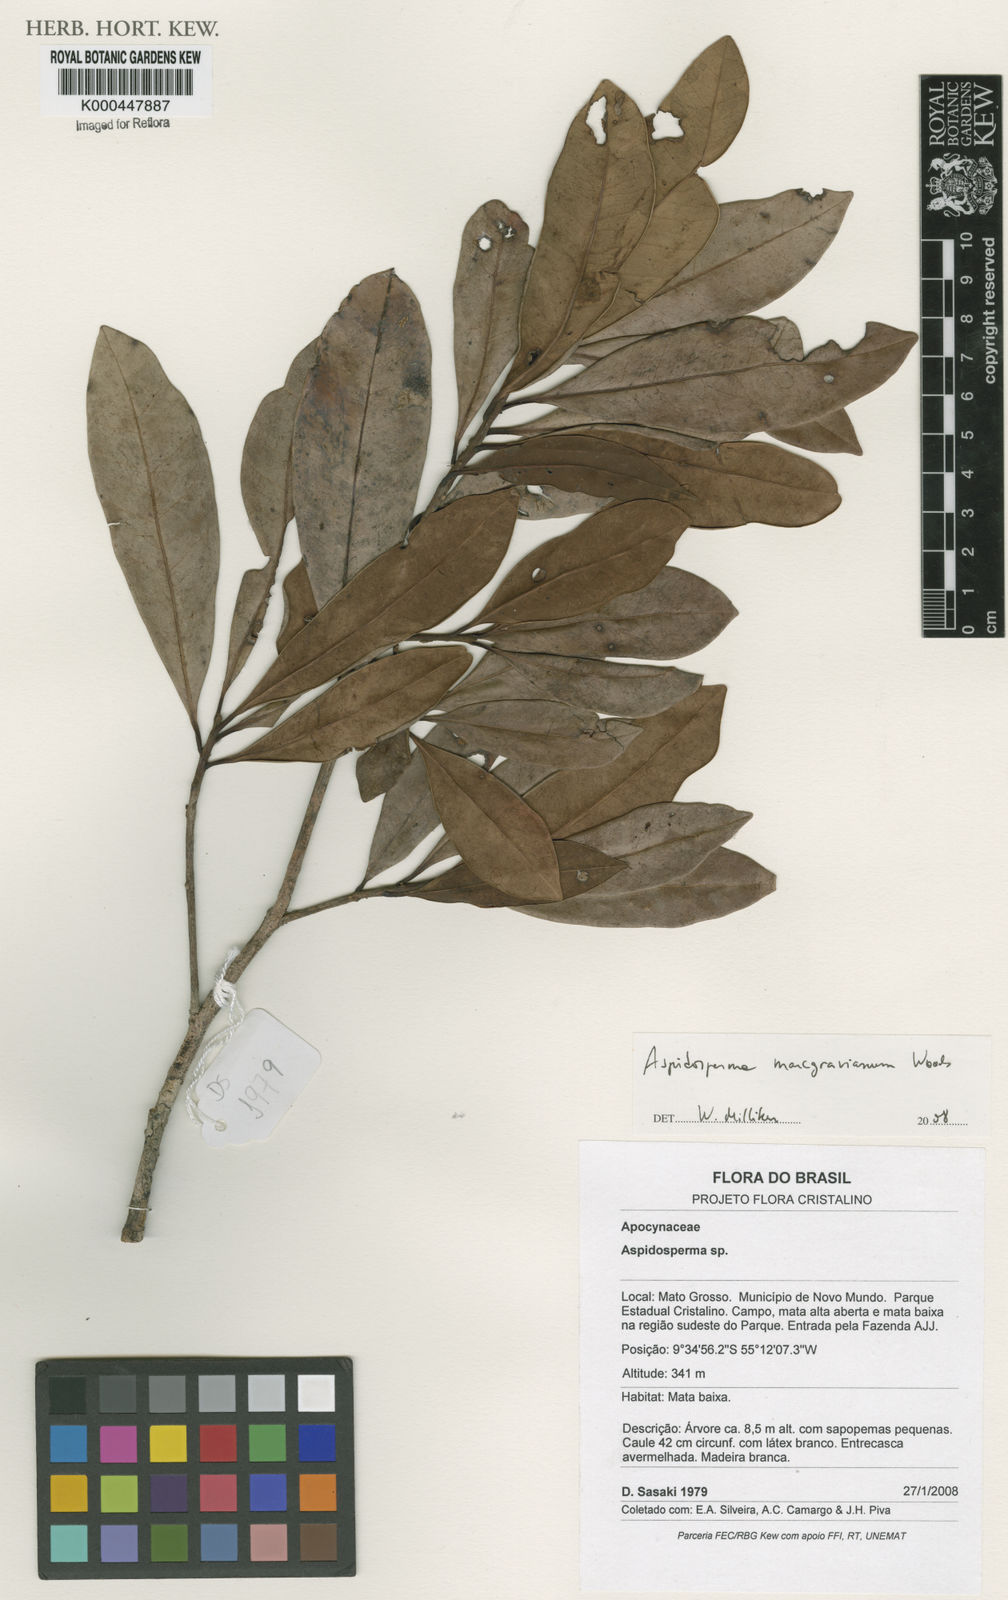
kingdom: Plantae
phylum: Tracheophyta
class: Magnoliopsida
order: Gentianales
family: Apocynaceae
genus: Aspidosperma
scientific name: Aspidosperma excelsum
